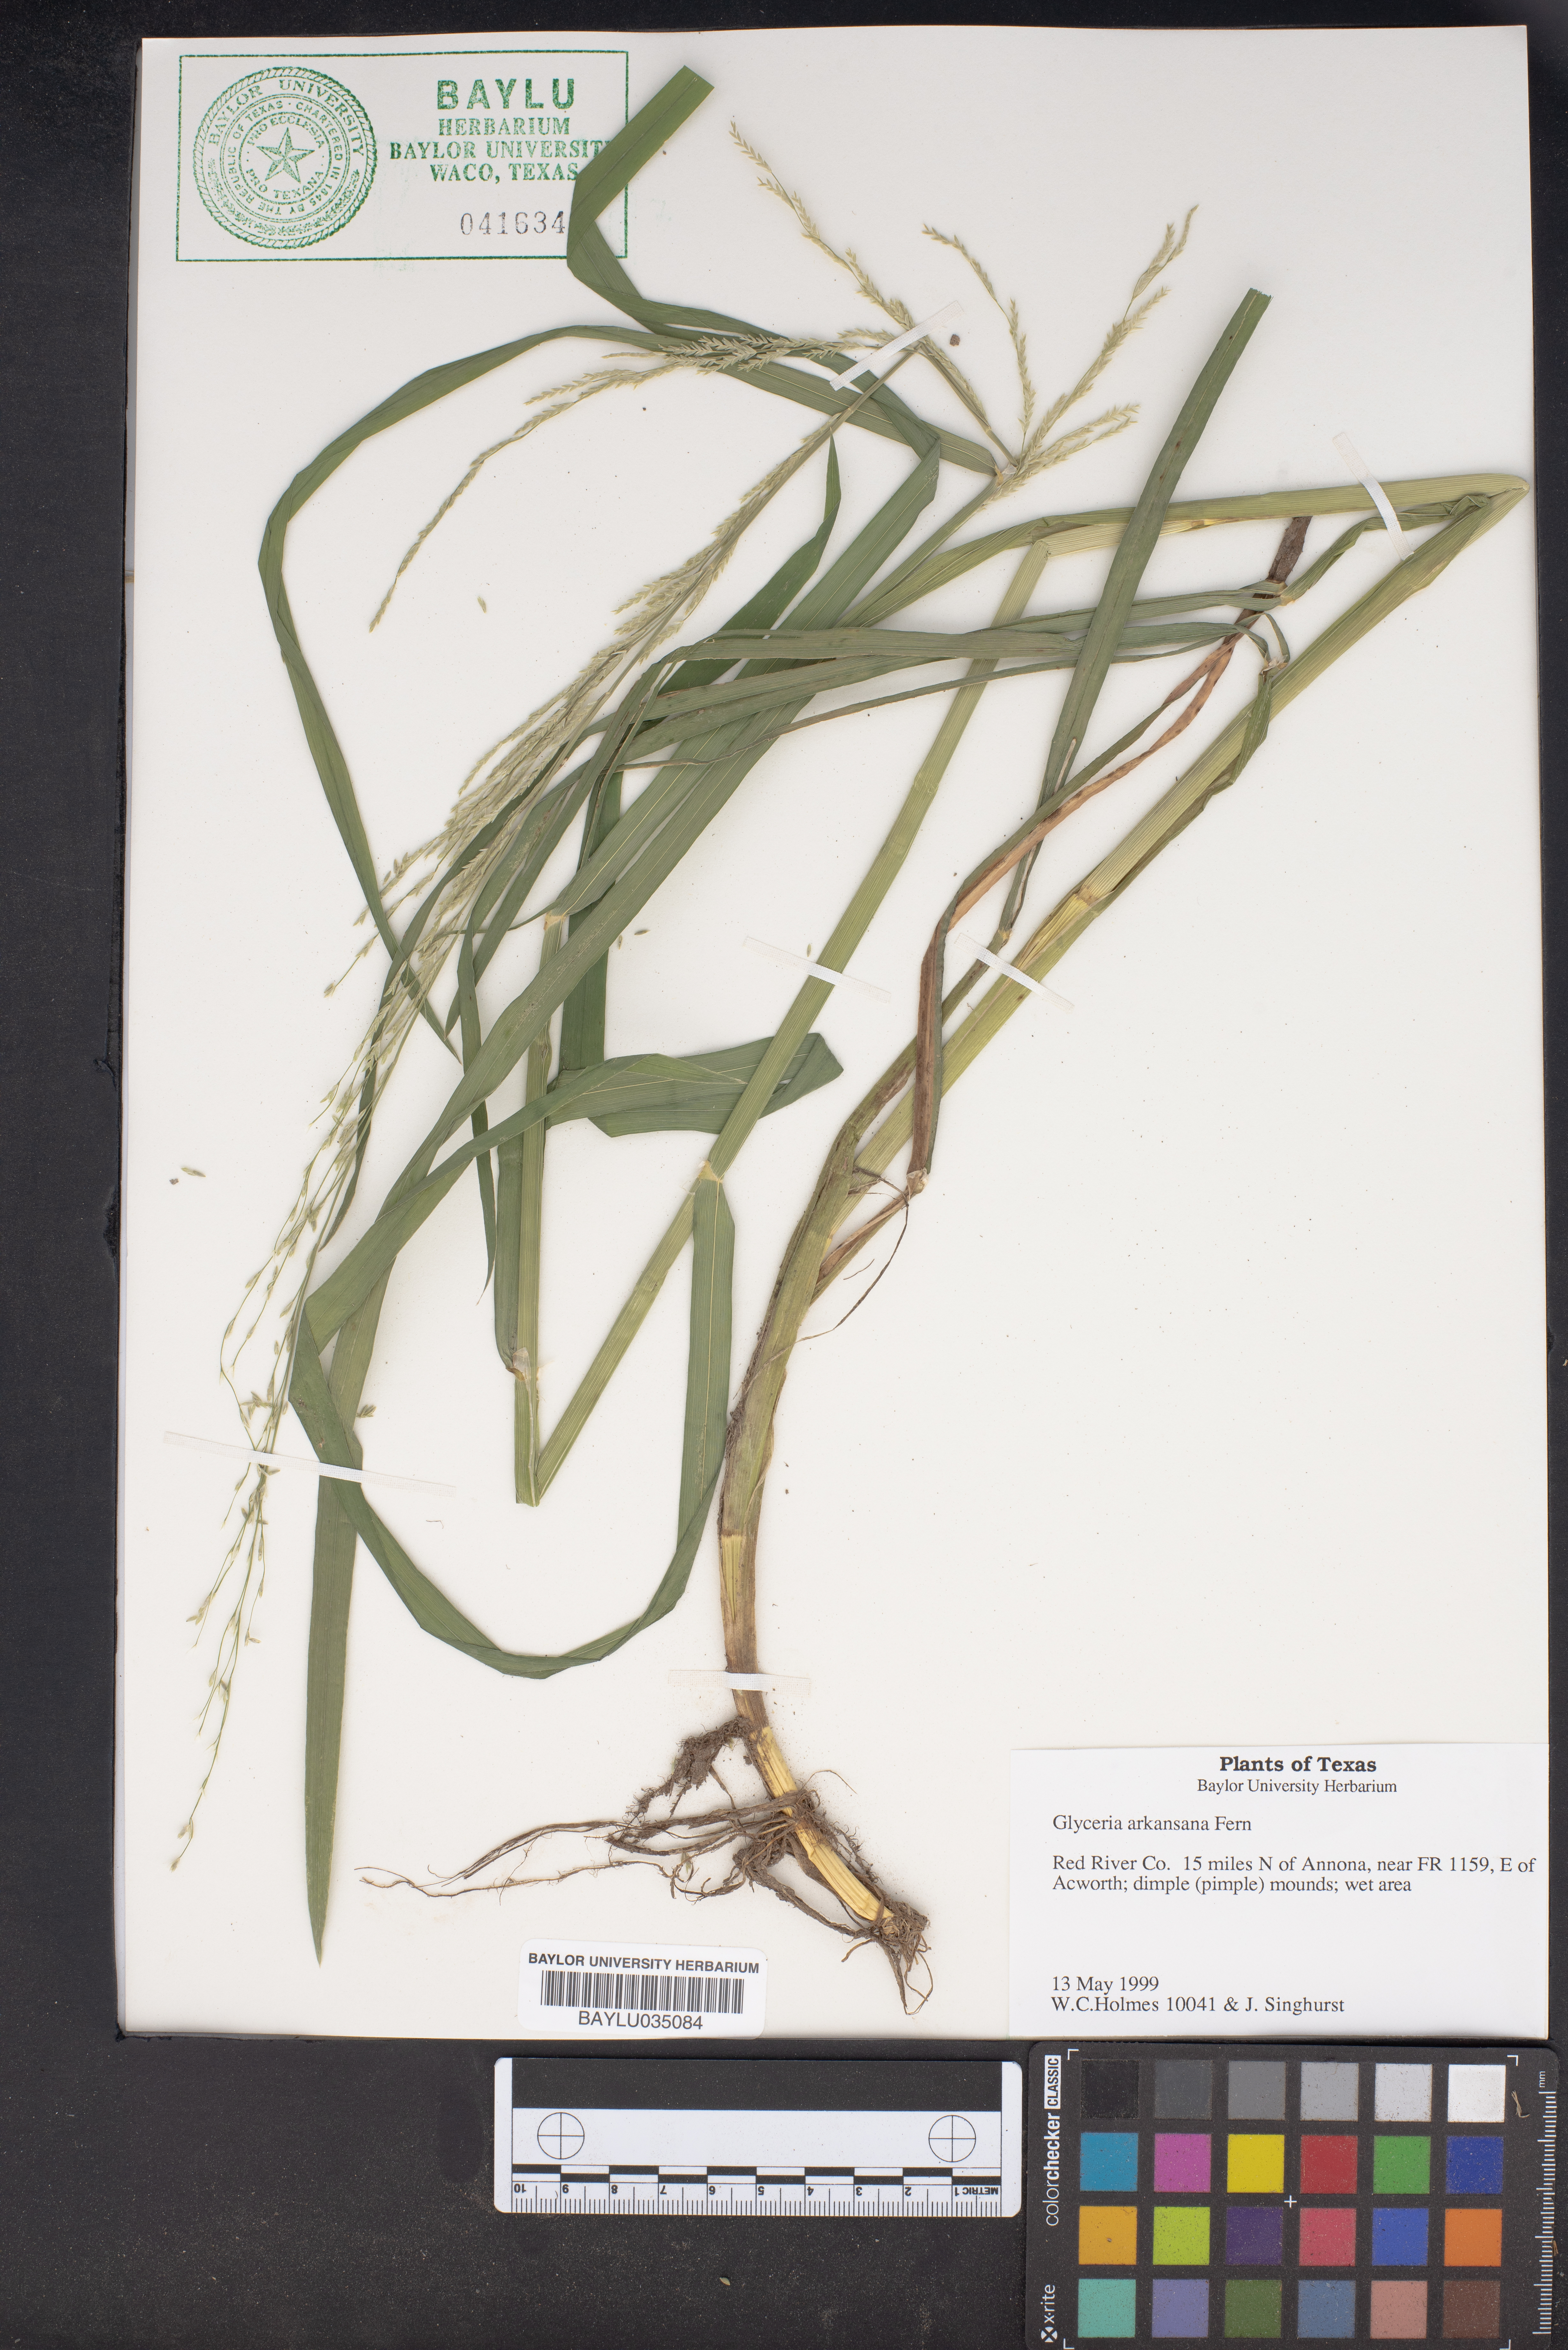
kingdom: Plantae
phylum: Tracheophyta
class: Liliopsida
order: Poales
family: Poaceae
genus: Glyceria
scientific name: Glyceria arkansana
